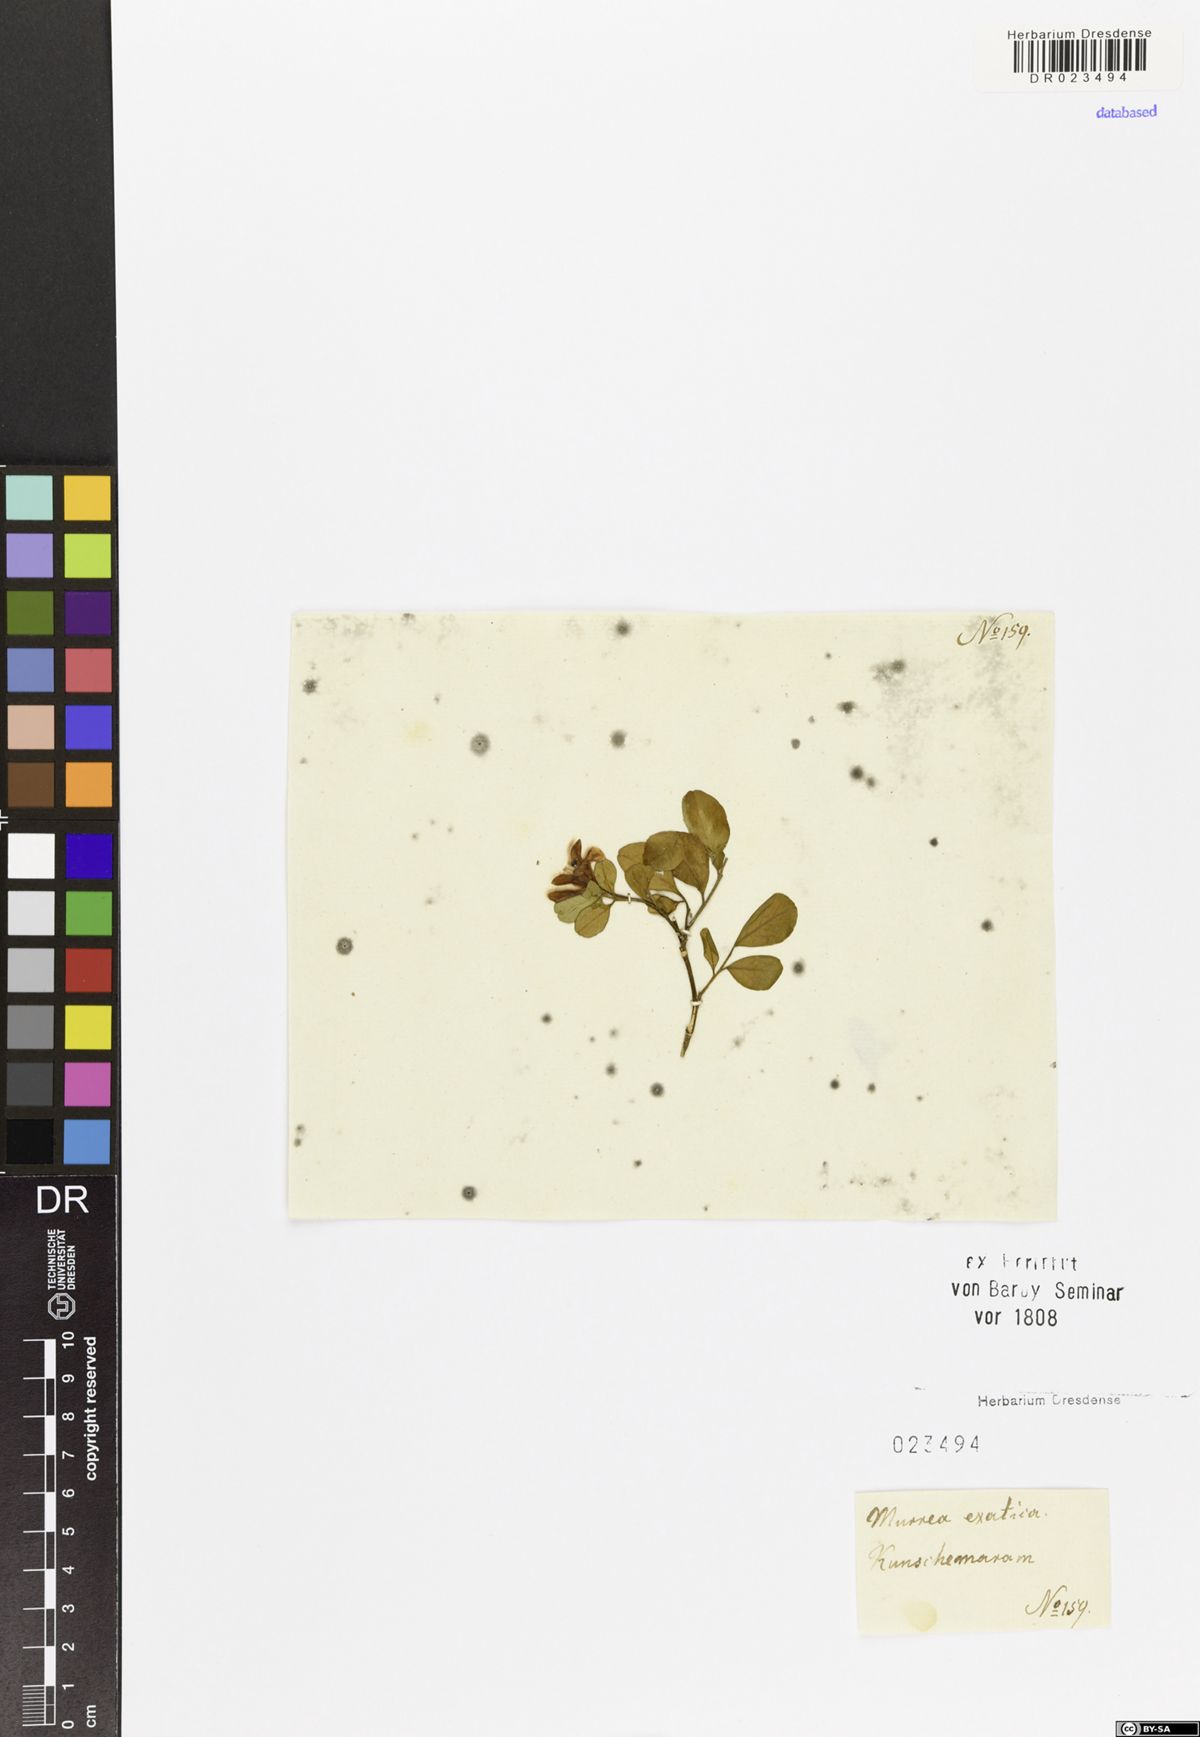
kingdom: Plantae
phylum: Tracheophyta
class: Magnoliopsida
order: Sapindales
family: Rutaceae
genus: Murraya
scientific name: Murraya paniculata
